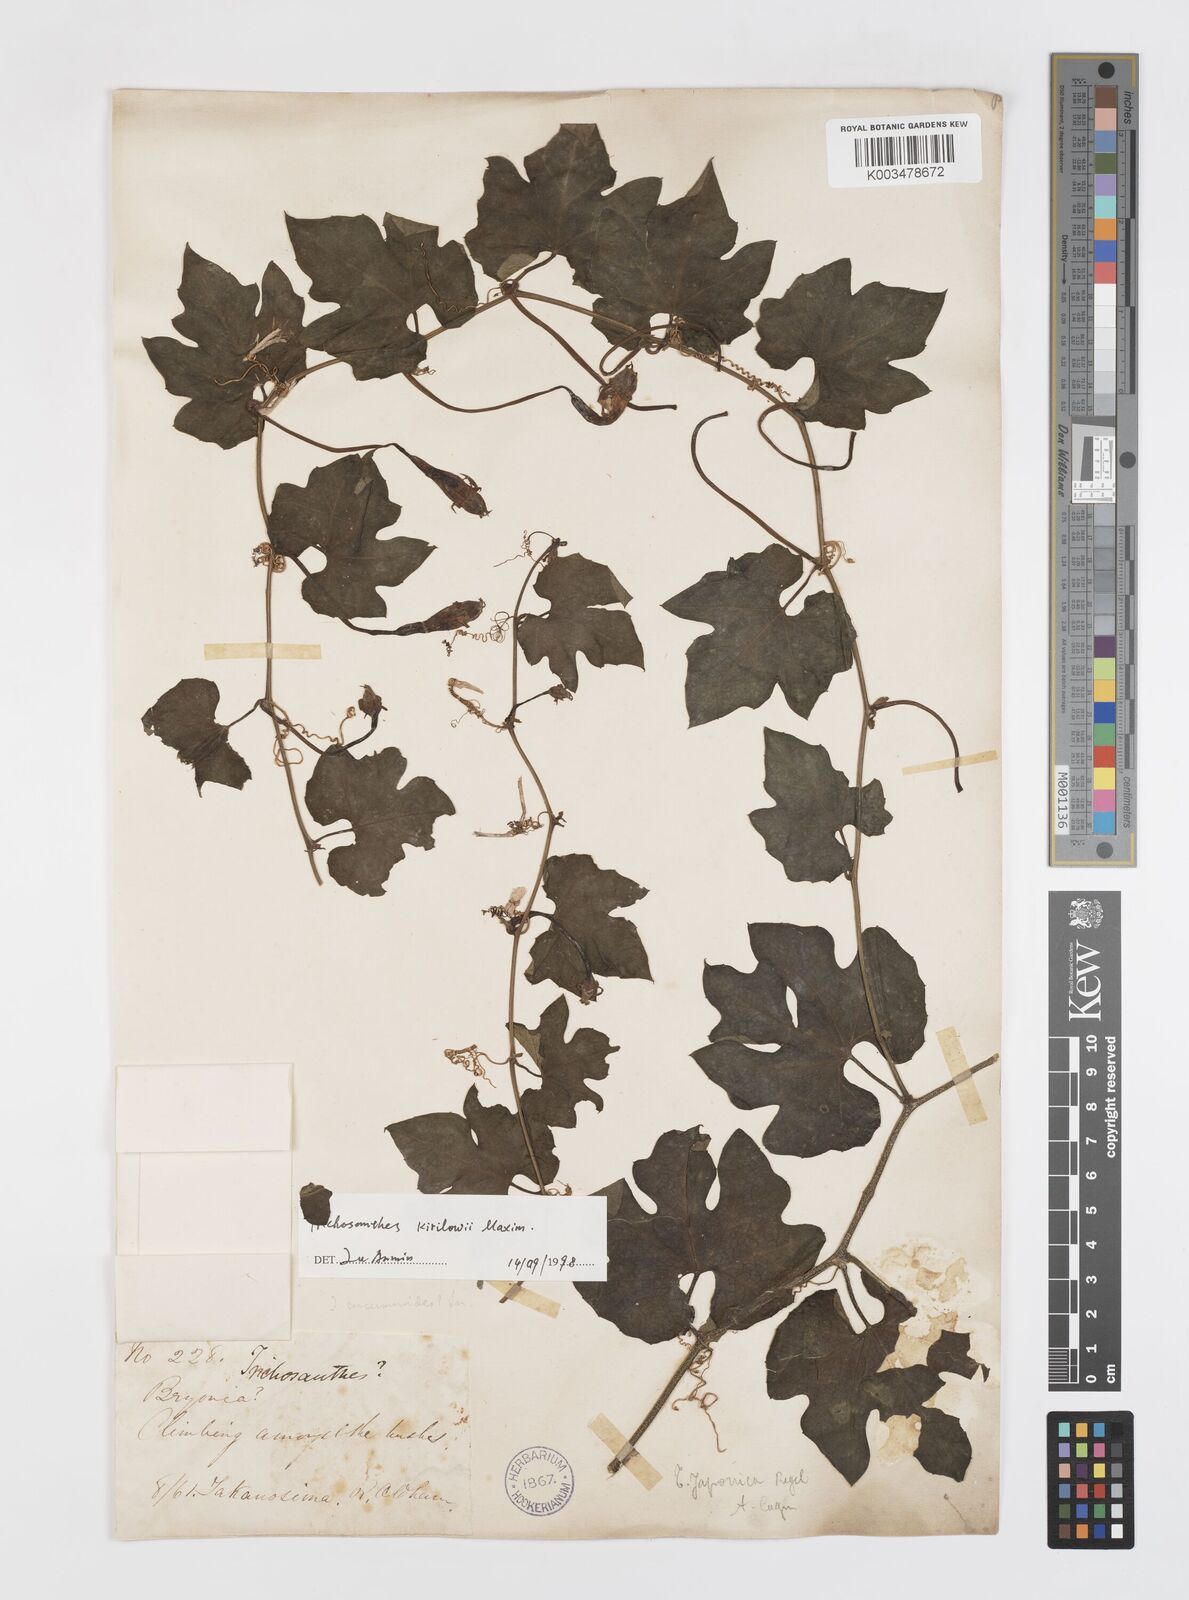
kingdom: Plantae
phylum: Tracheophyta
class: Magnoliopsida
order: Cucurbitales
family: Cucurbitaceae
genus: Trichosanthes
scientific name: Trichosanthes kirilowii
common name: Chinese-cucumber
